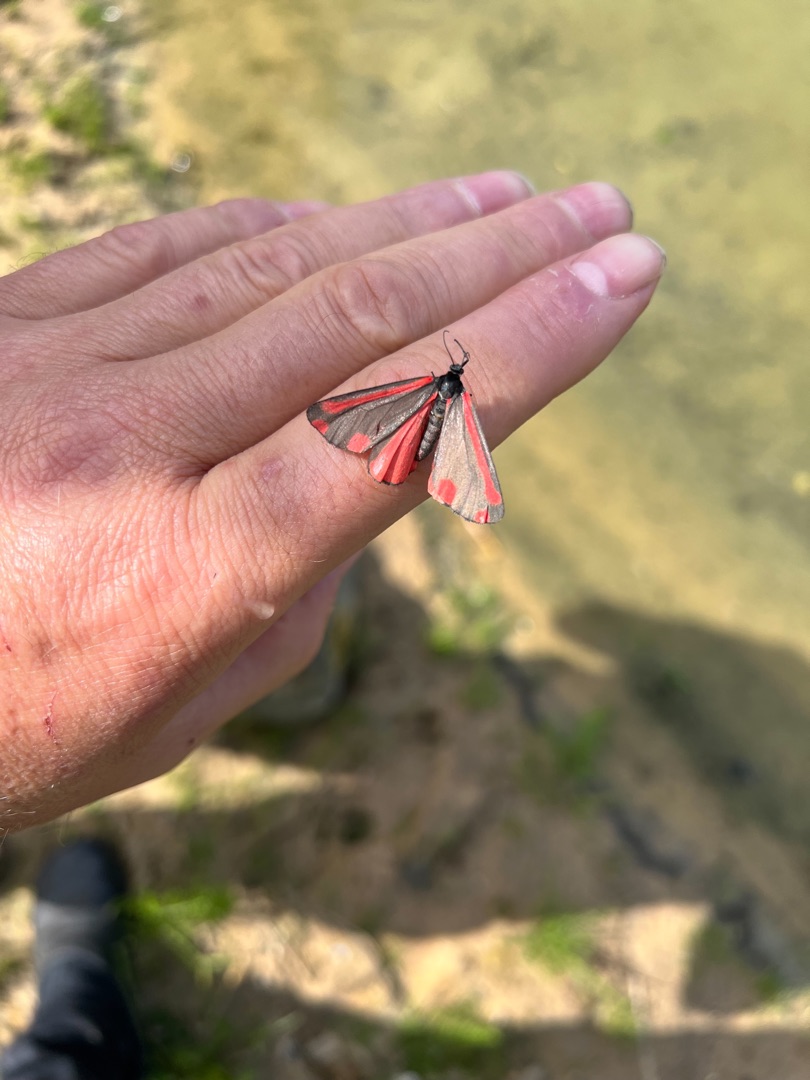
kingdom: Animalia
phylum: Arthropoda
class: Insecta
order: Lepidoptera
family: Erebidae
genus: Tyria
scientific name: Tyria jacobaeae
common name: Blodplet
